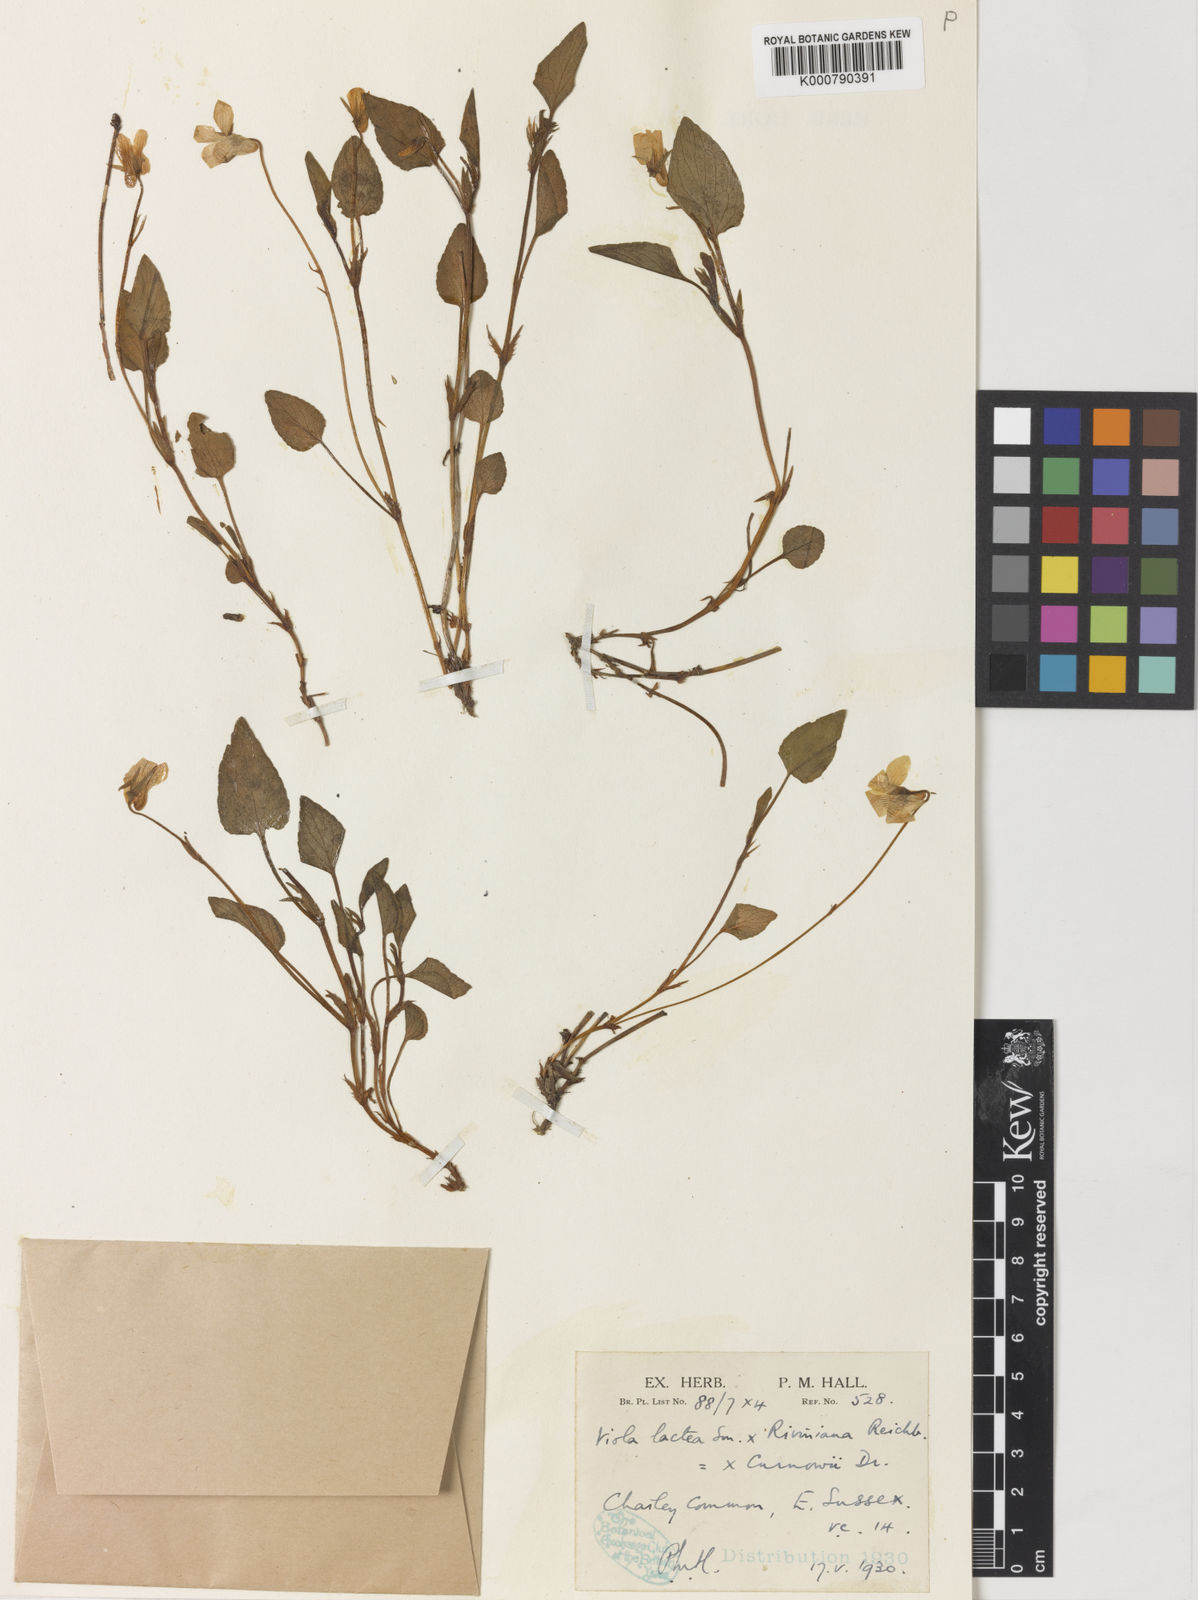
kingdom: Plantae
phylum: Tracheophyta
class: Magnoliopsida
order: Malpighiales
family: Violaceae
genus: Viola
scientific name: Viola lactea
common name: Pale dog-violet
